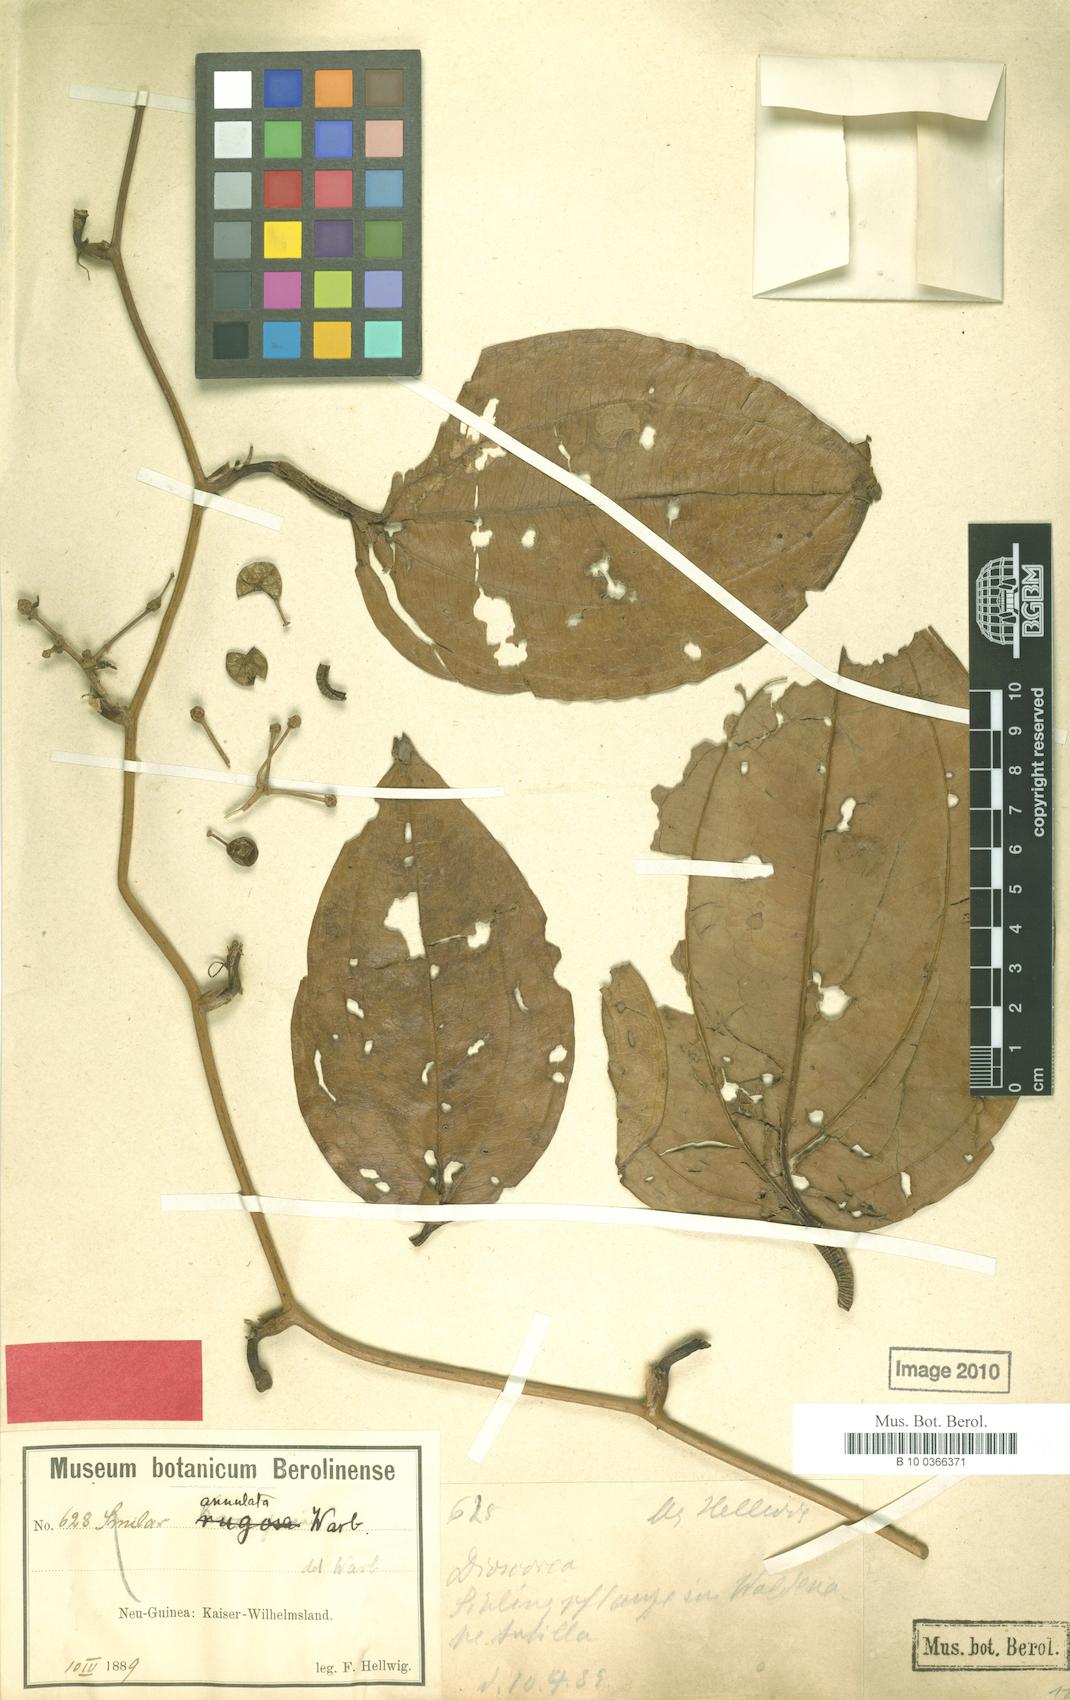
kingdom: Plantae
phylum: Tracheophyta
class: Liliopsida
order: Liliales
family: Smilacaceae
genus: Smilax
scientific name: Smilax annulata
